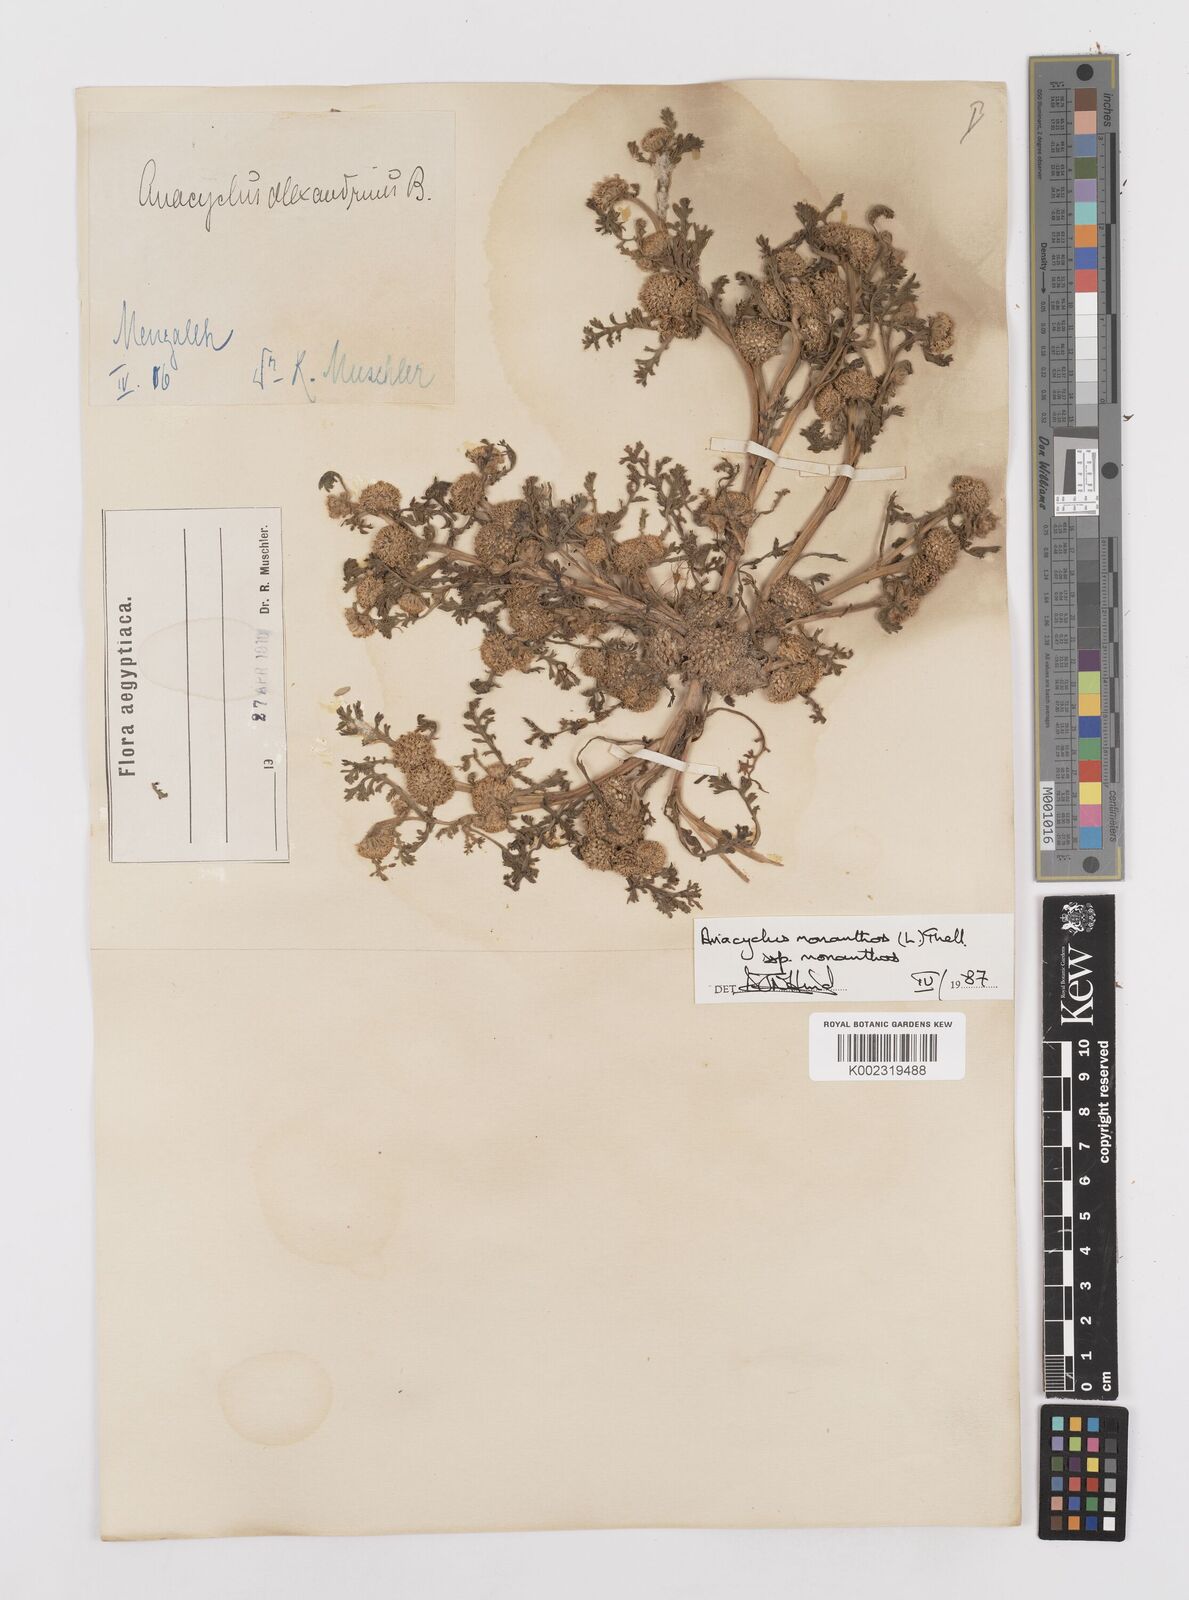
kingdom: Plantae
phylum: Tracheophyta
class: Magnoliopsida
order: Asterales
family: Asteraceae
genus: Anacyclus
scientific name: Anacyclus monanthos
